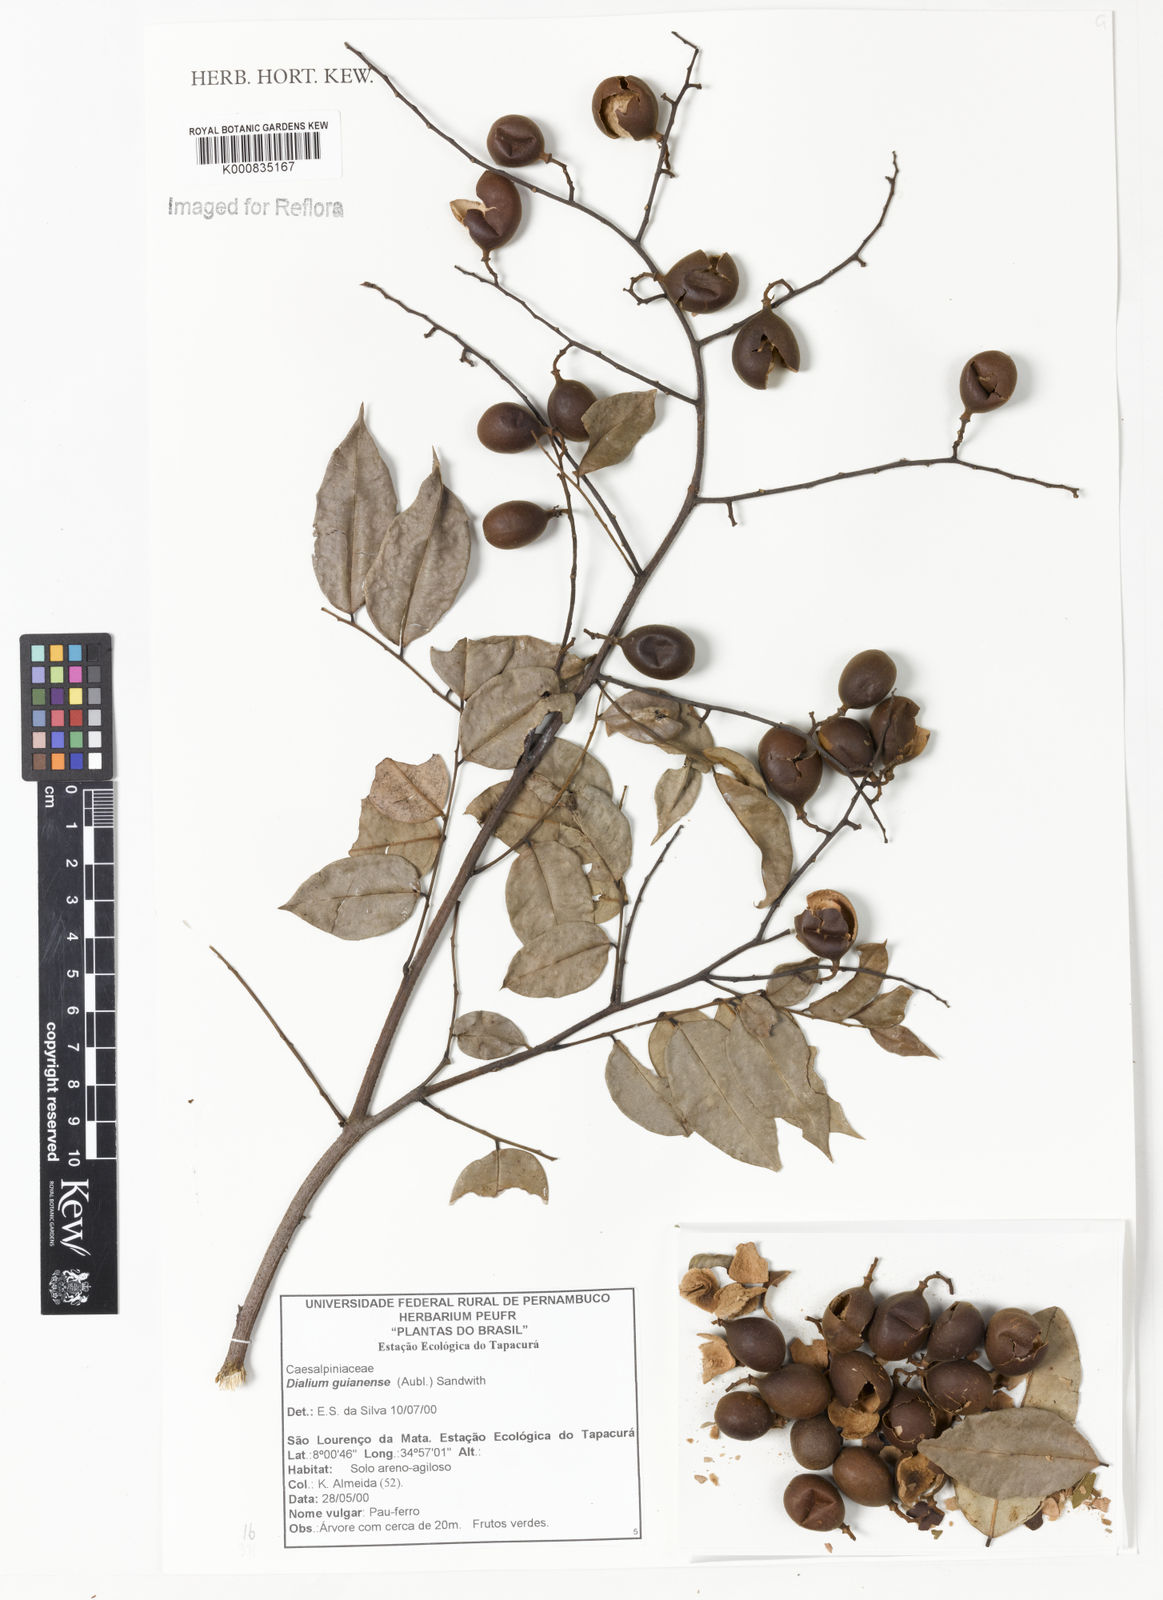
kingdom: Plantae
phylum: Tracheophyta
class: Magnoliopsida
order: Fabales
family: Fabaceae
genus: Dialium
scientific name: Dialium guianense
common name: Ironwood
